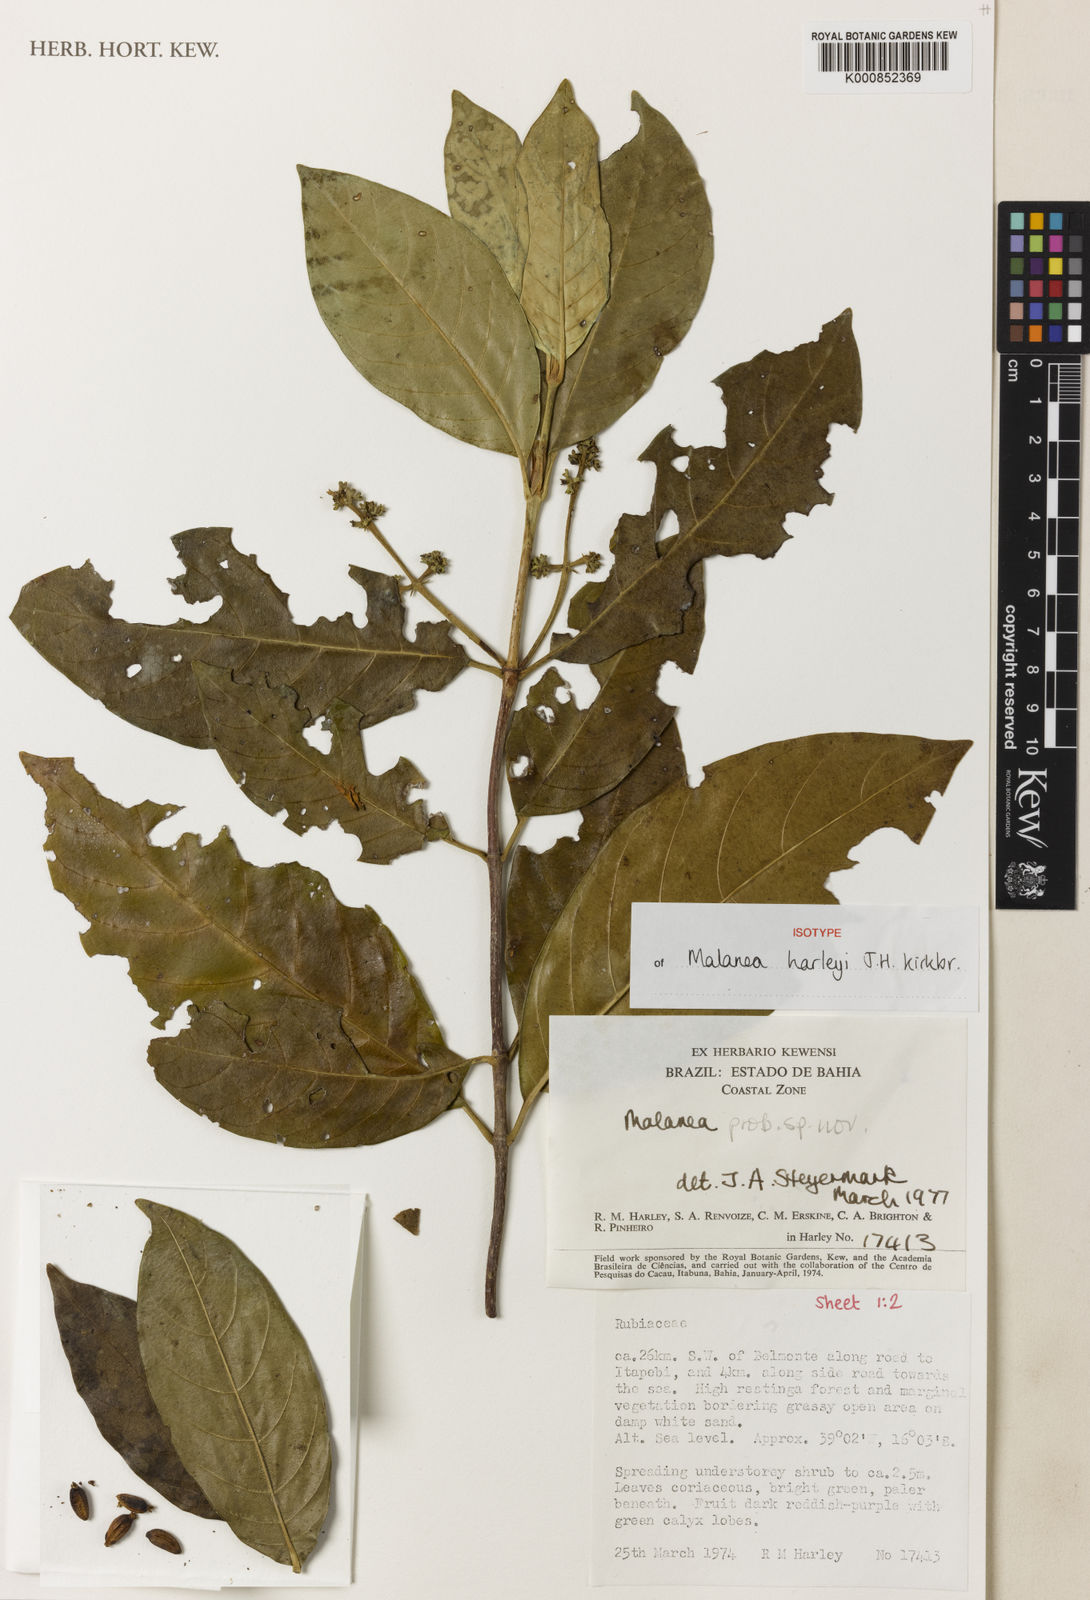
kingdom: Plantae
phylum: Tracheophyta
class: Magnoliopsida
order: Gentianales
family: Rubiaceae
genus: Malanea
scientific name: Malanea harleyi
